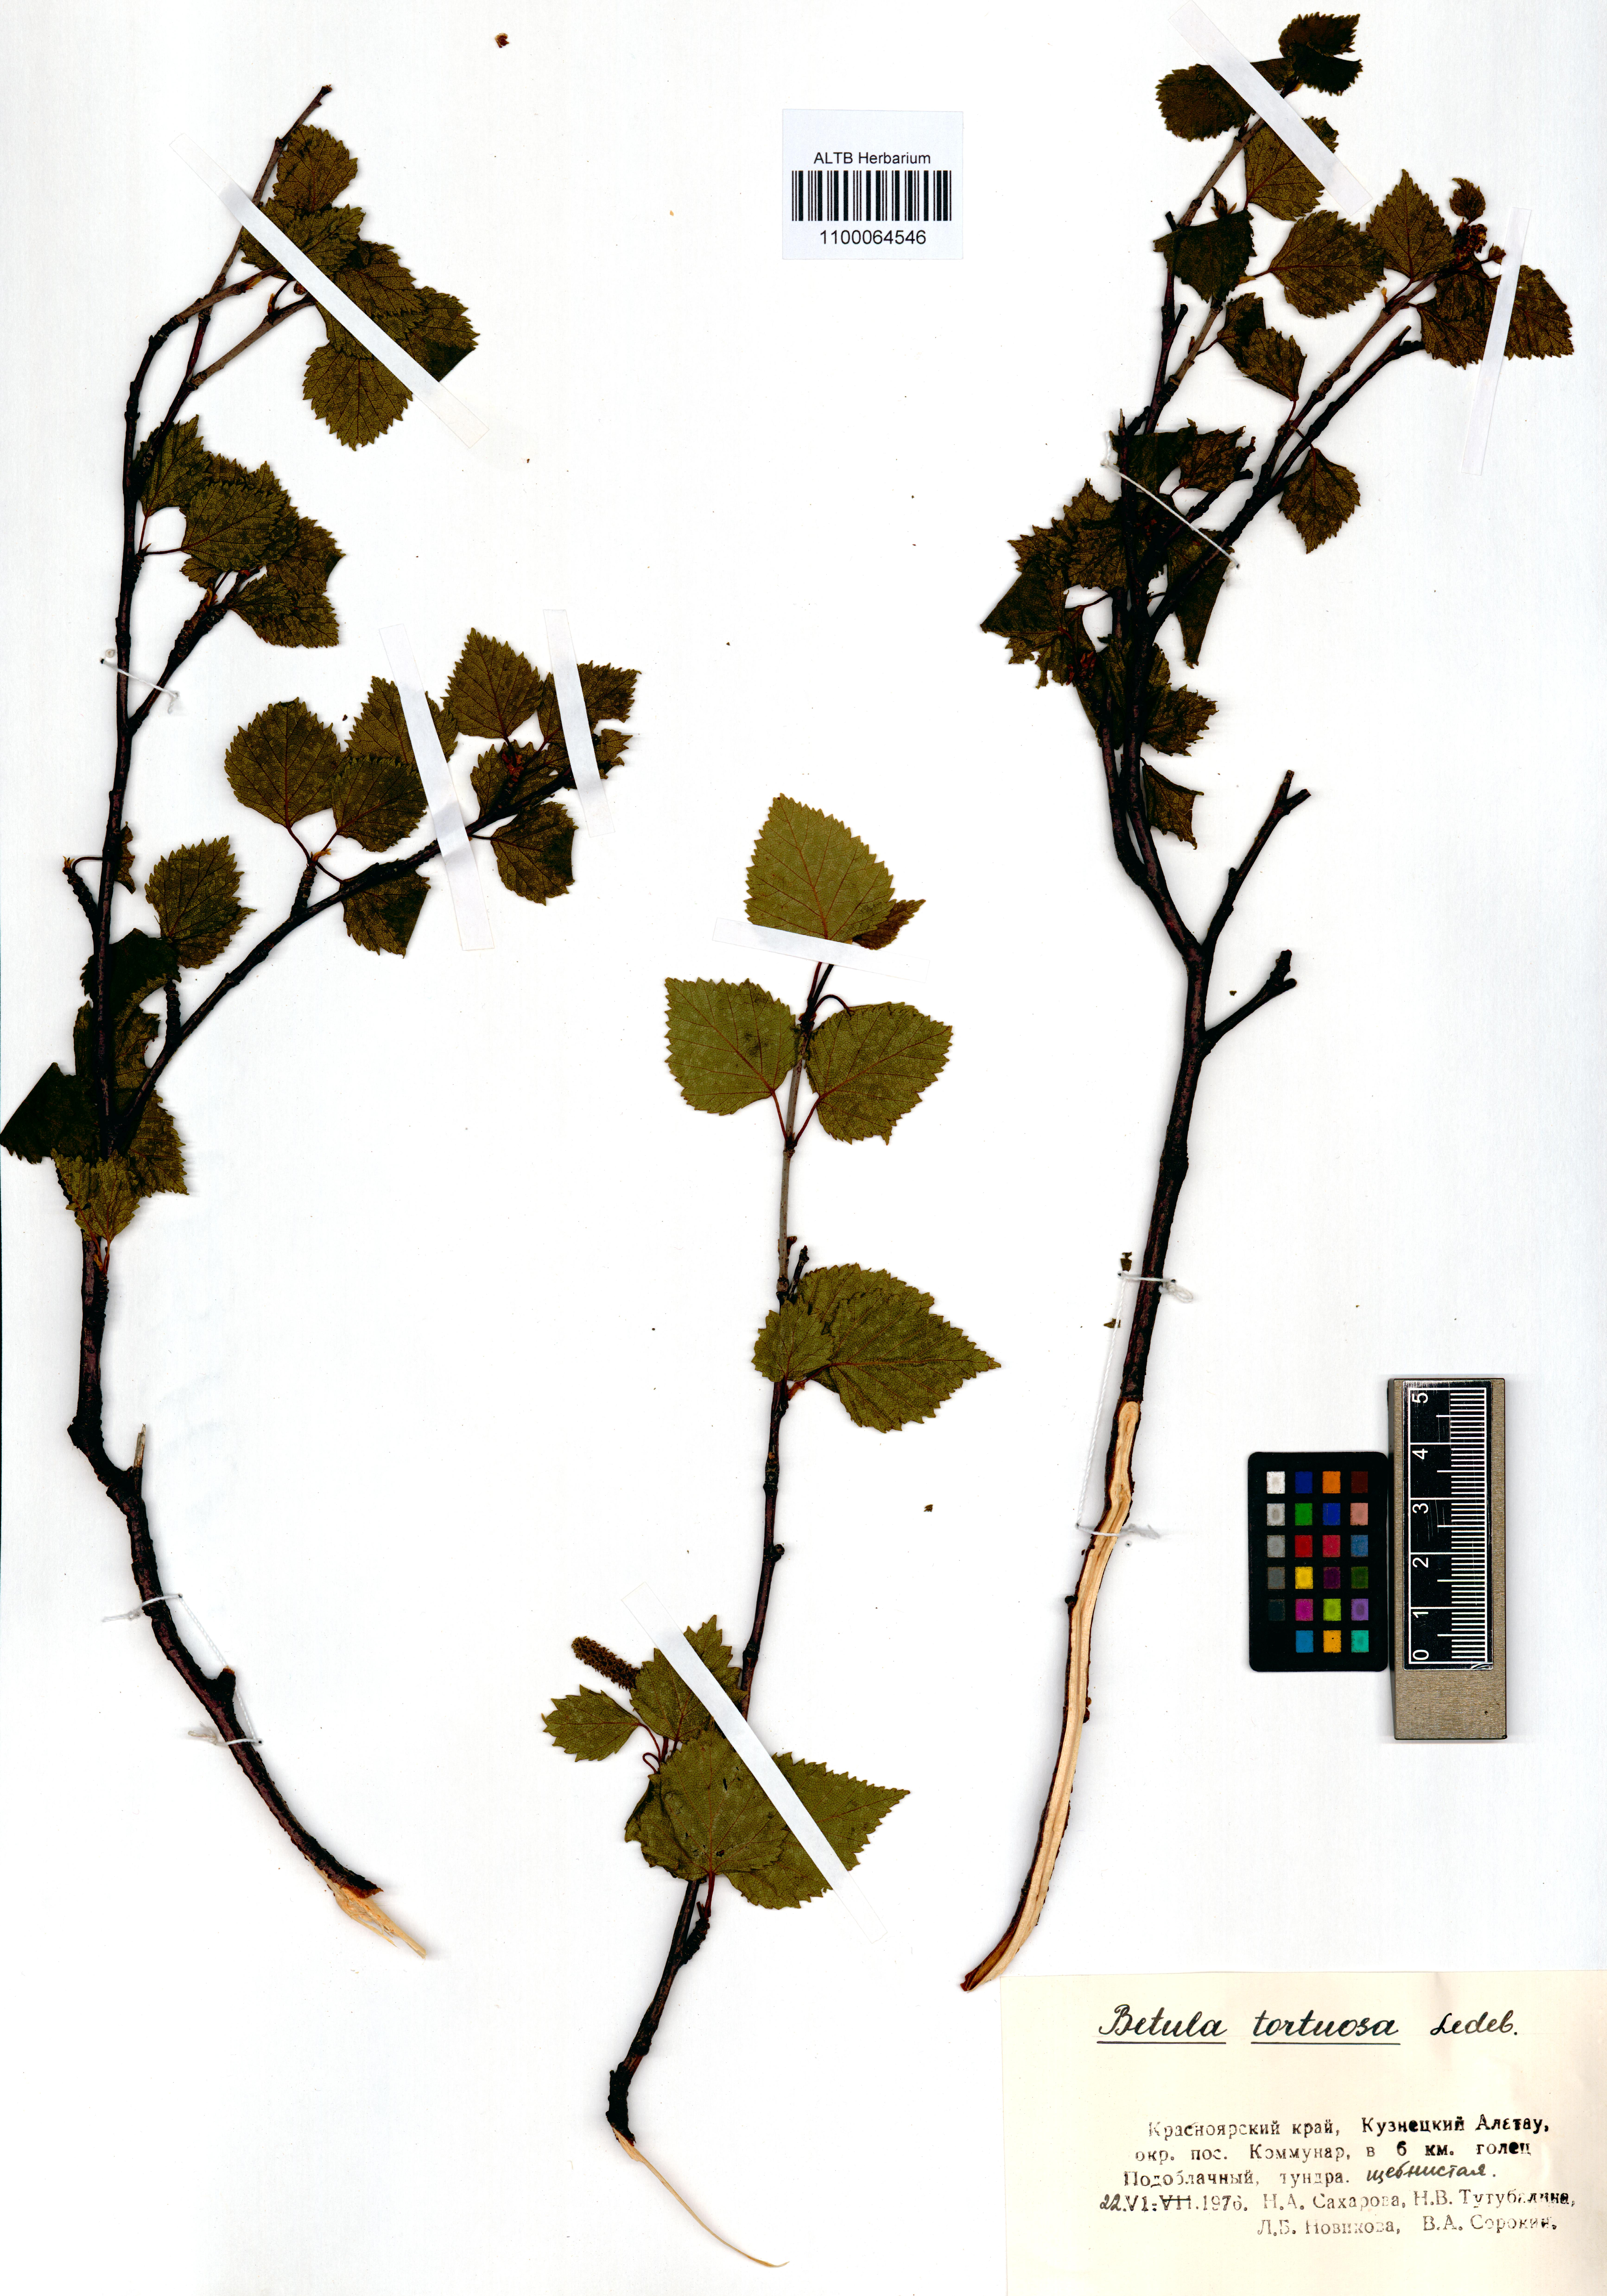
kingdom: Plantae
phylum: Tracheophyta
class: Magnoliopsida
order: Fagales
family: Betulaceae
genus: Betula
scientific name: Betula pubescens
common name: Downy birch
